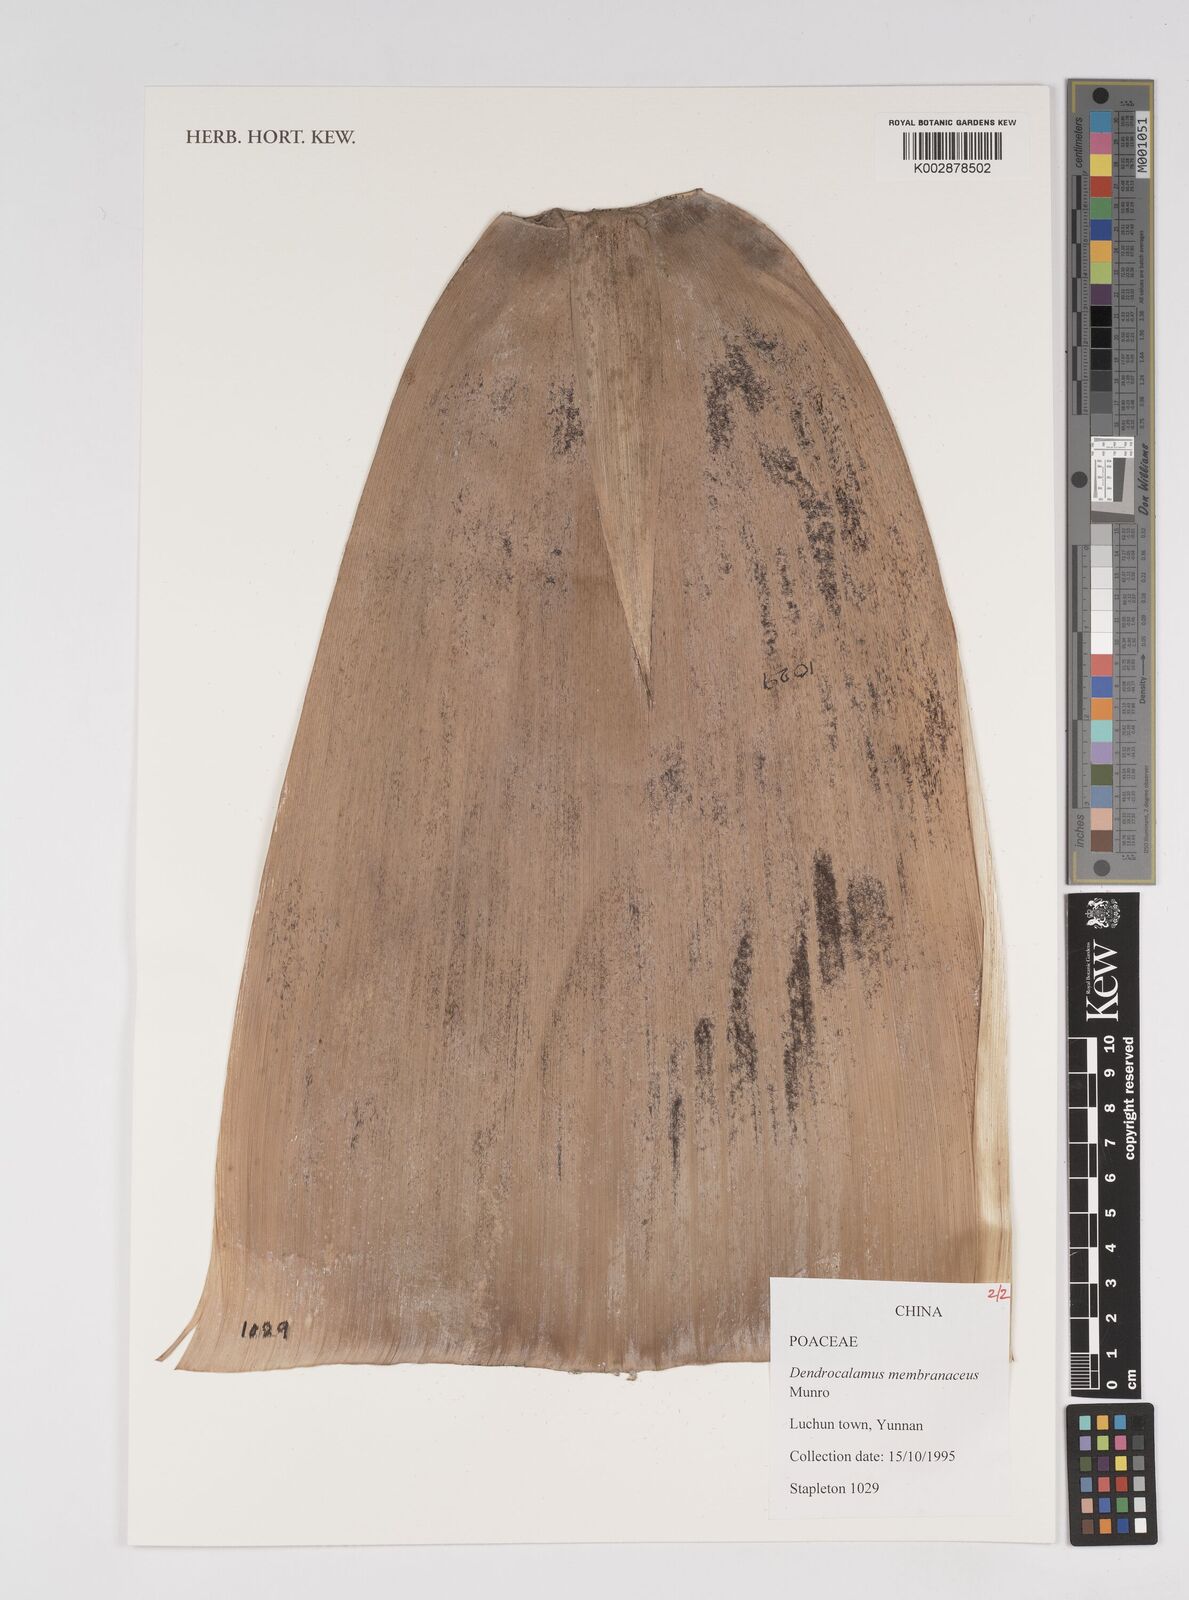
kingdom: Plantae
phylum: Tracheophyta
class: Liliopsida
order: Poales
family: Poaceae
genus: Dendrocalamus
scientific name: Dendrocalamus membranaceus
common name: White bamboo
